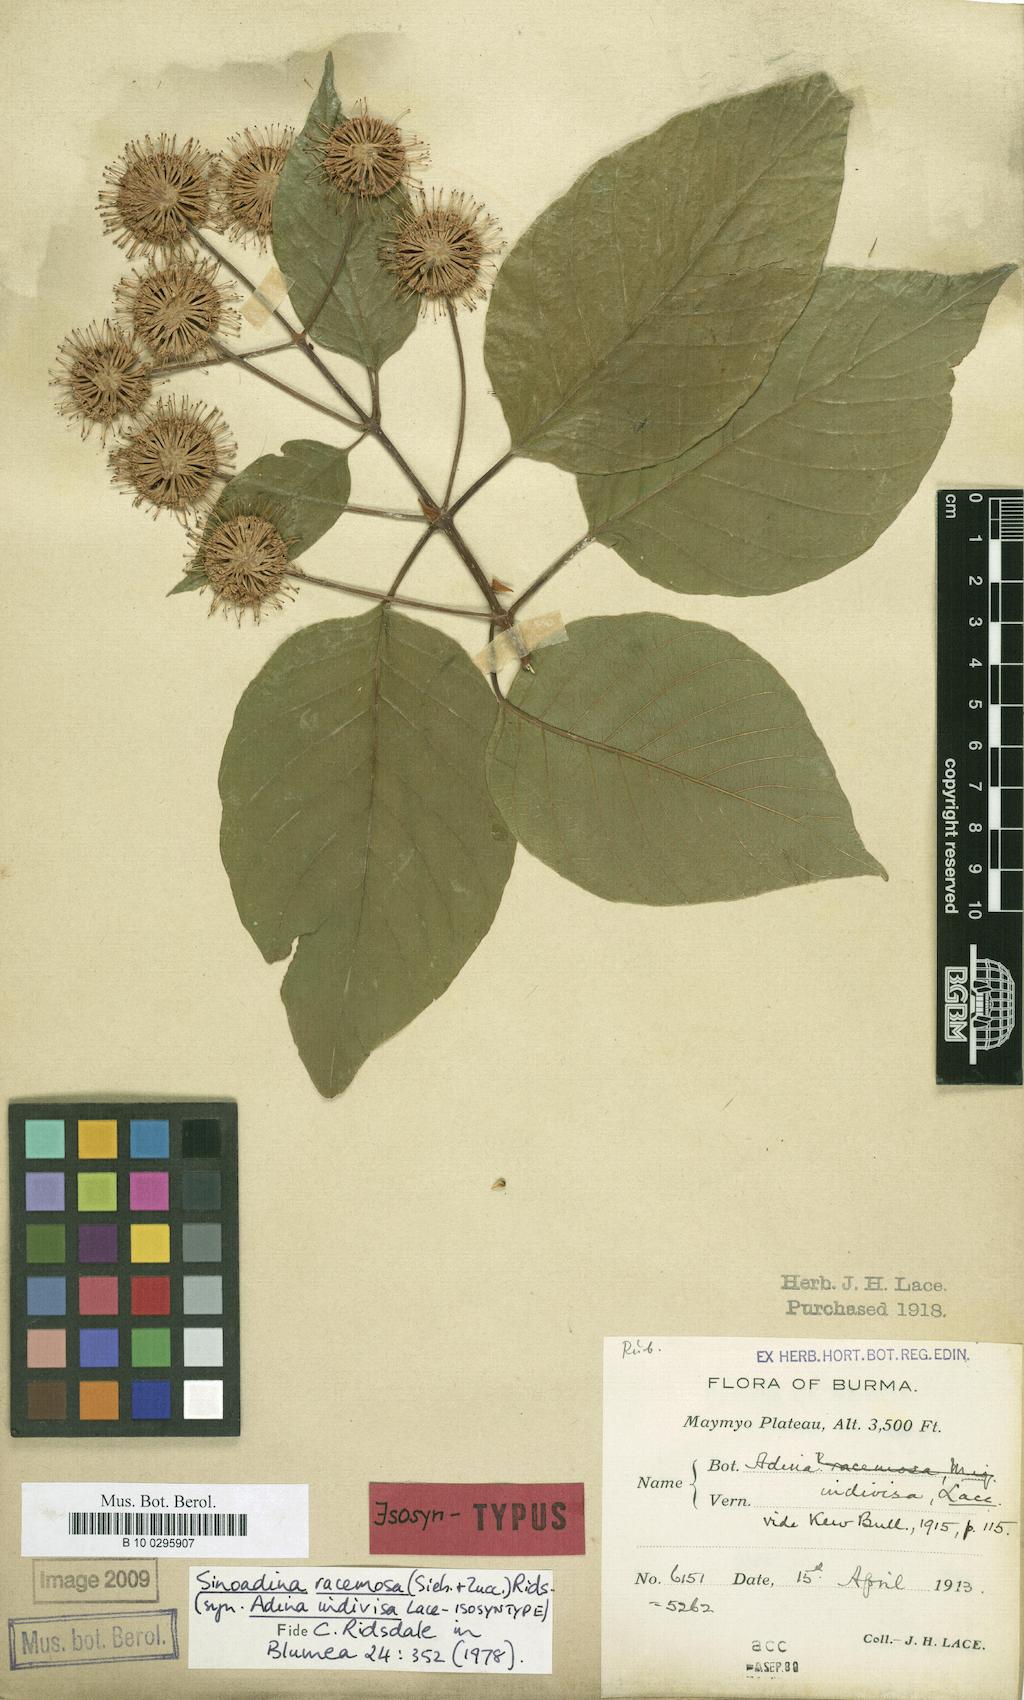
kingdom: Plantae
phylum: Tracheophyta
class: Magnoliopsida
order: Gentianales
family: Rubiaceae
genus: Adina
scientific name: Adina racemosa
